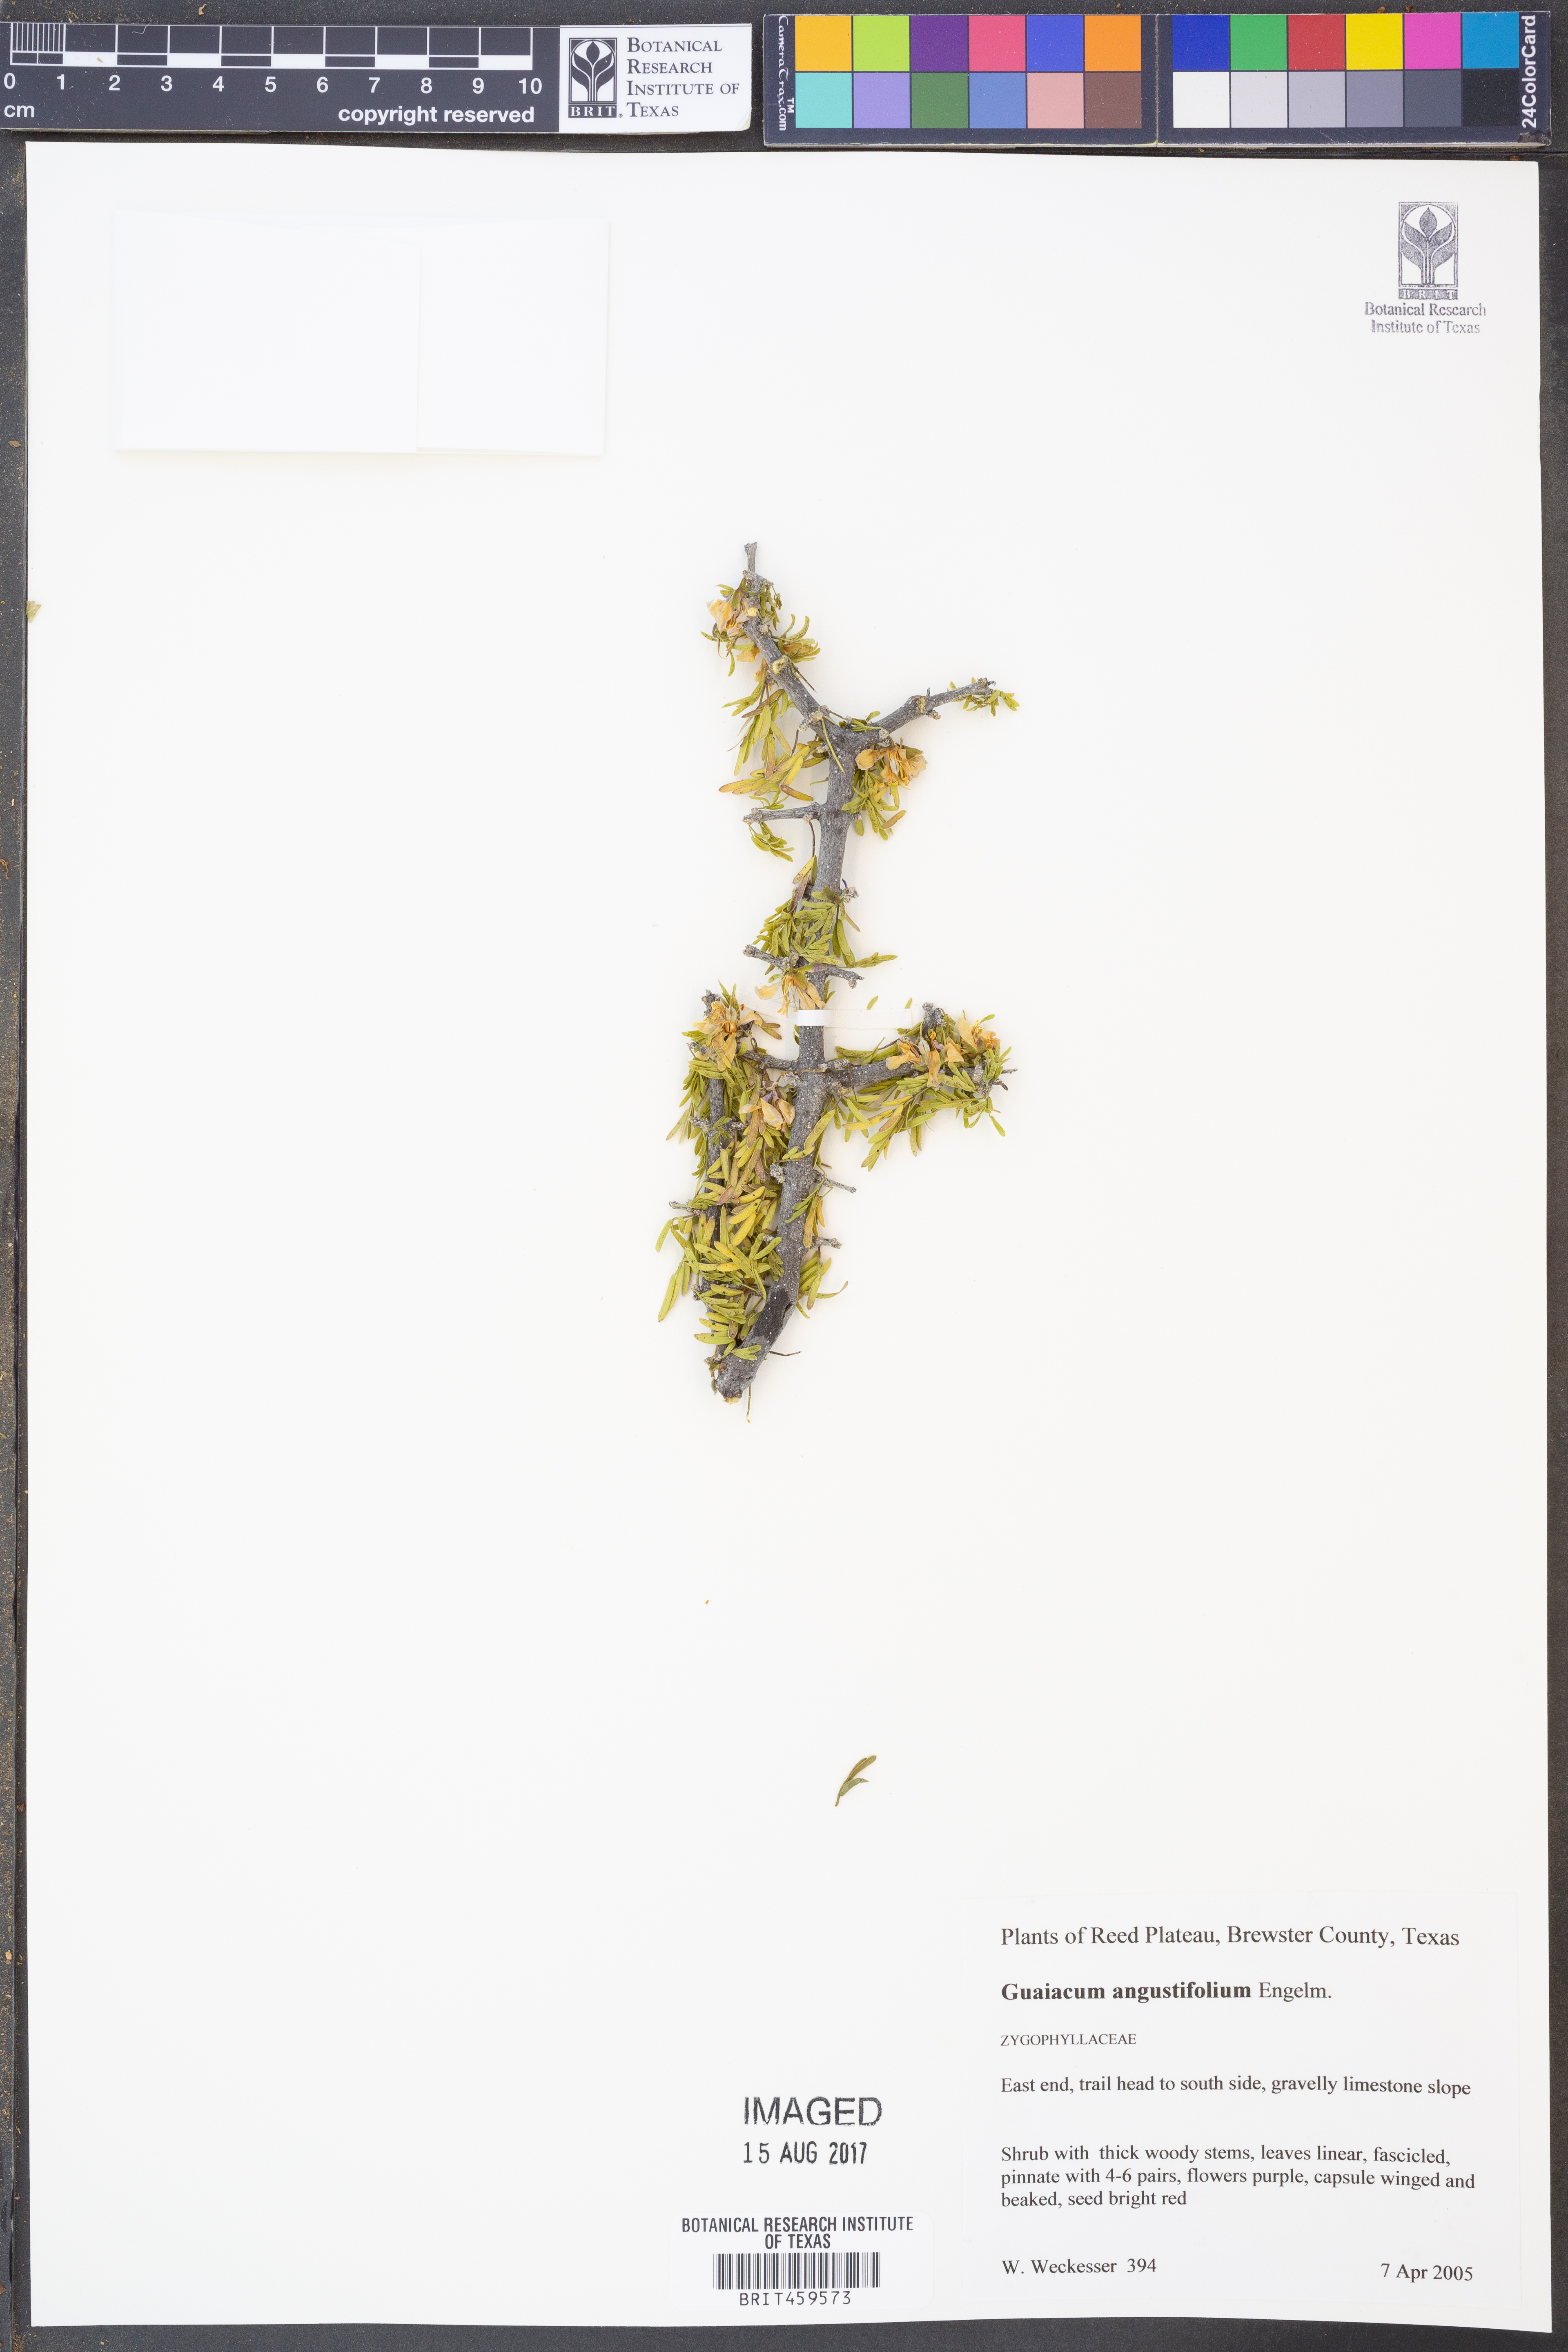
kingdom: Plantae
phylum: Tracheophyta
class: Magnoliopsida
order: Zygophyllales
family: Zygophyllaceae
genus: Porlieria
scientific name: Porlieria angustifolia
